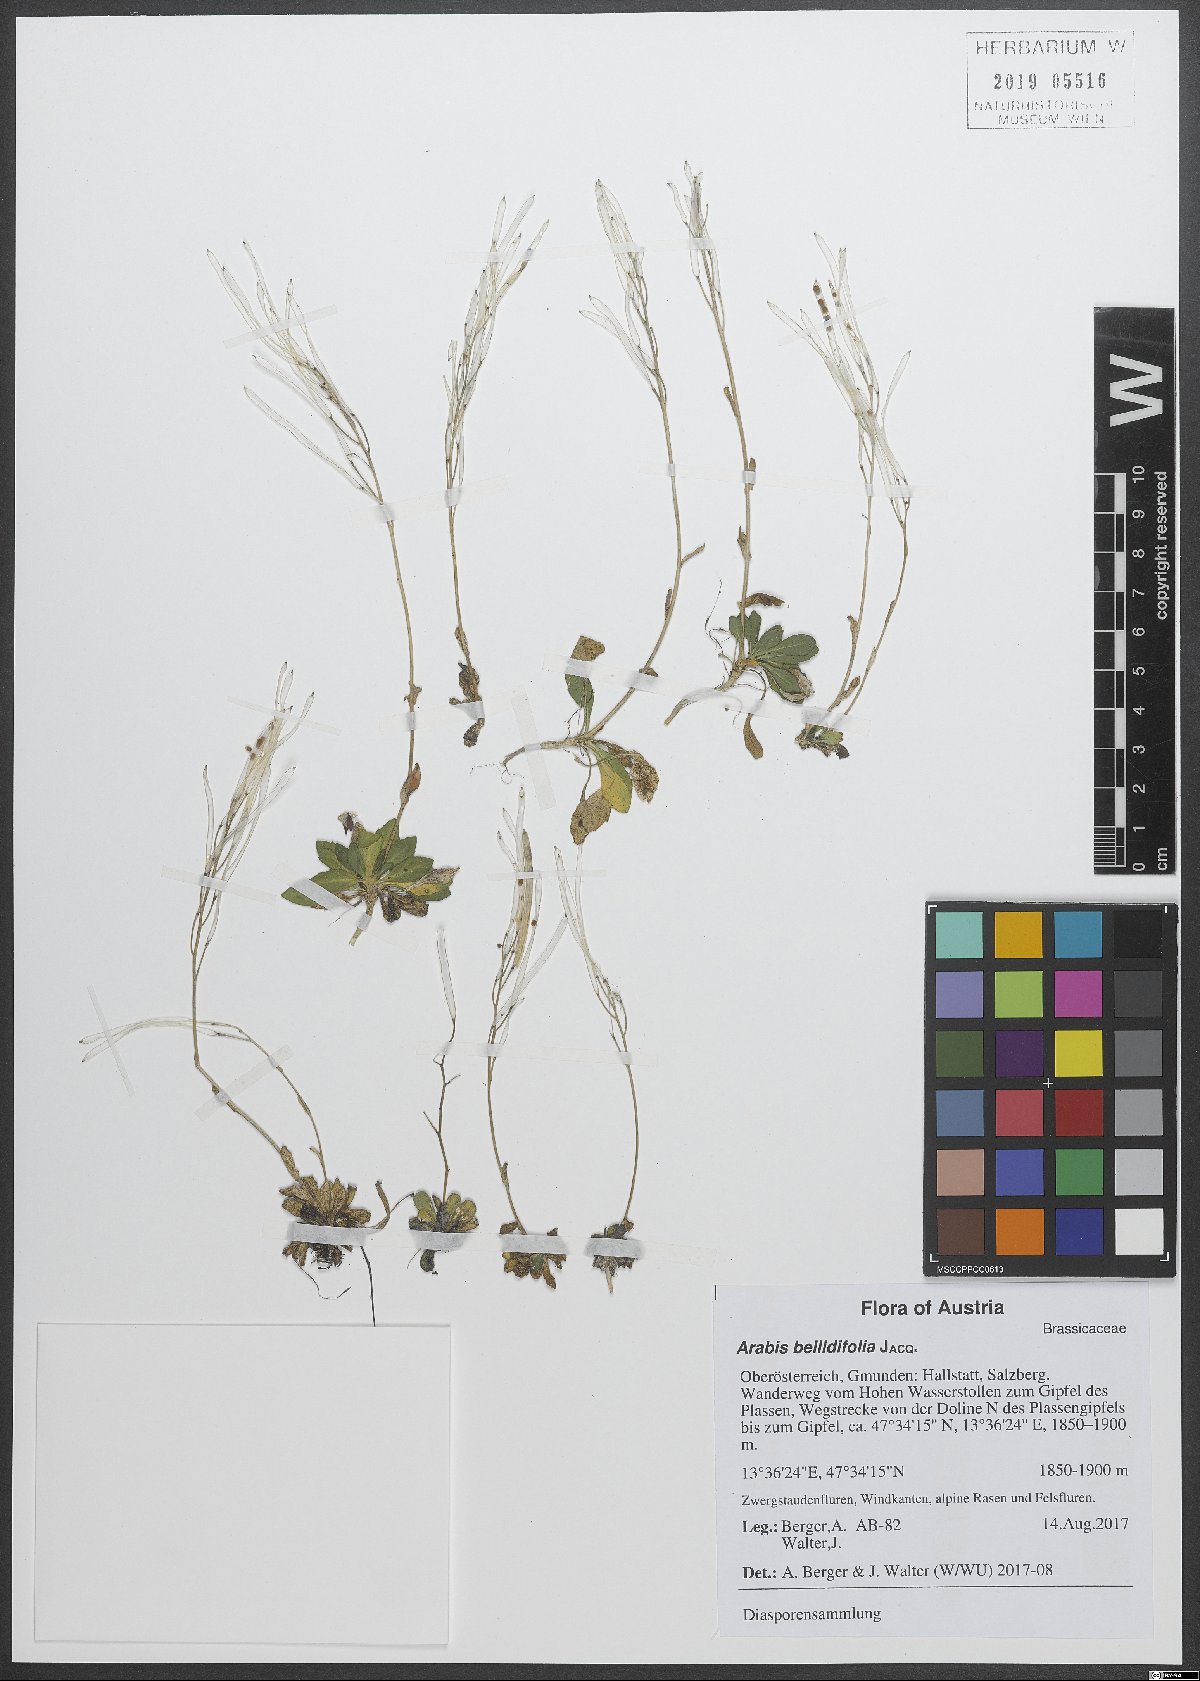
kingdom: Plantae
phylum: Tracheophyta
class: Magnoliopsida
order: Brassicales
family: Brassicaceae
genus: Arabis
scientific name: Arabis soyeri
